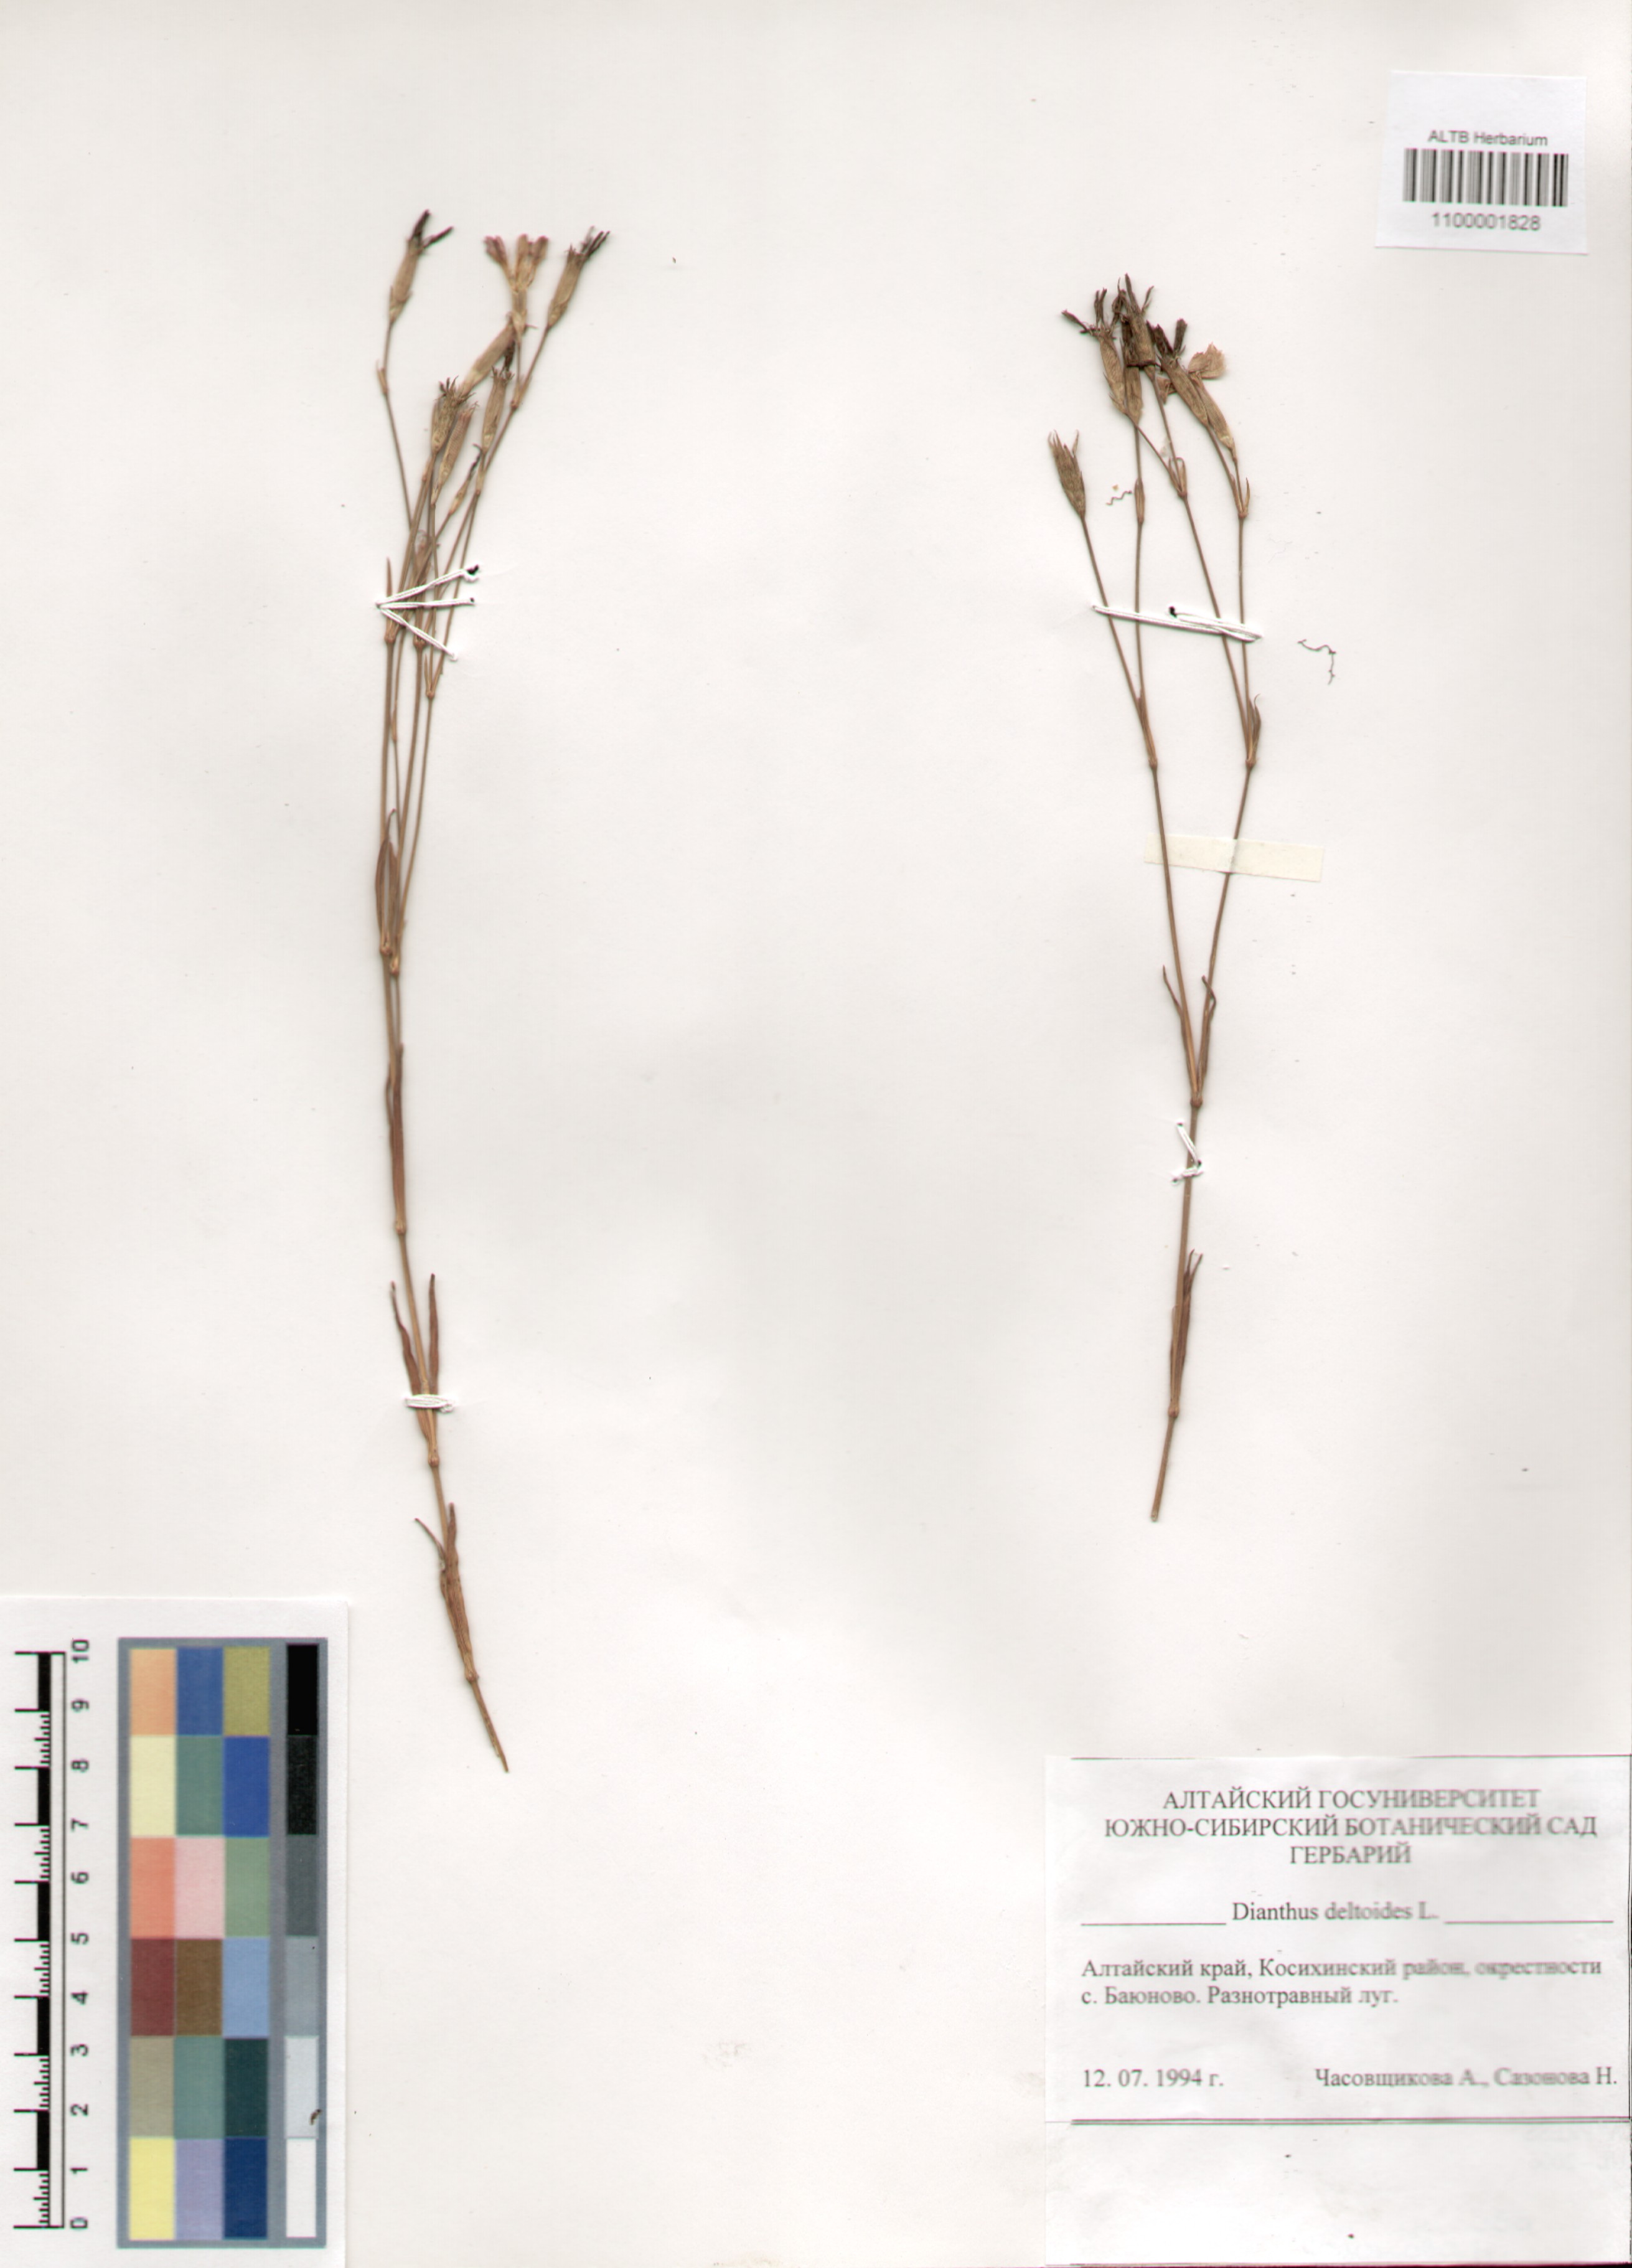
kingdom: Plantae
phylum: Tracheophyta
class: Magnoliopsida
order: Caryophyllales
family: Caryophyllaceae
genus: Dianthus
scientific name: Dianthus deltoides
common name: Maiden pink
